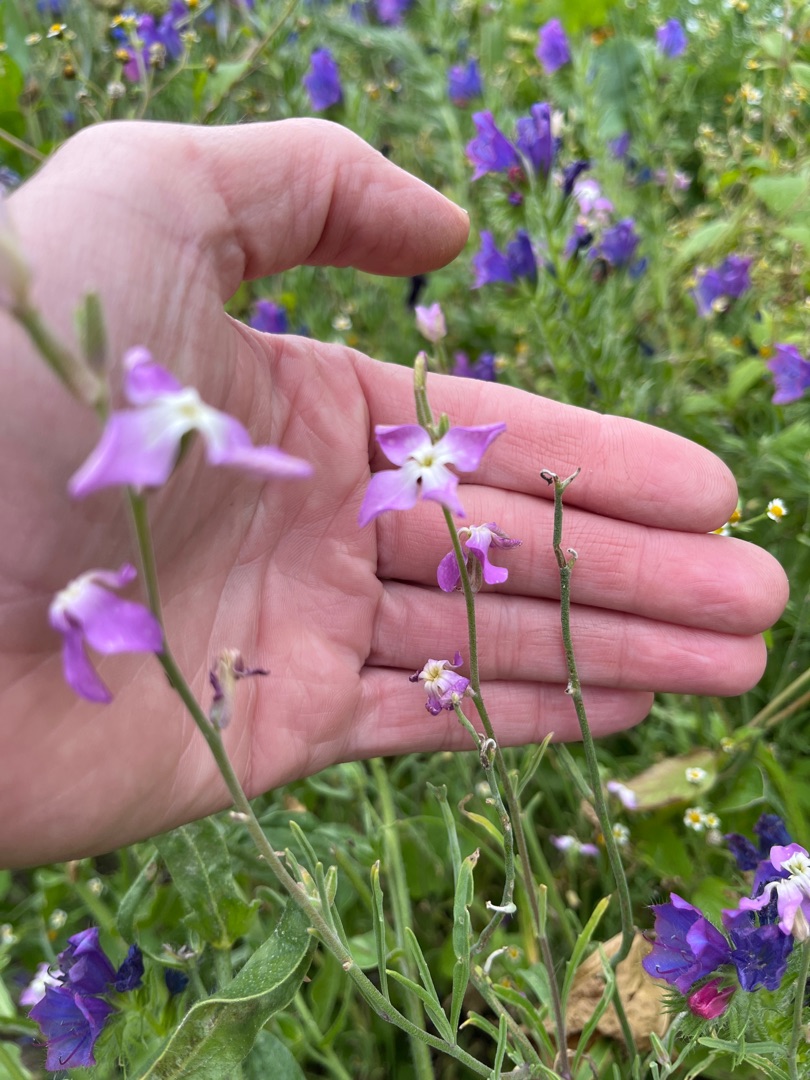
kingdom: Plantae
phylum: Tracheophyta
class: Magnoliopsida
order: Brassicales
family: Brassicaceae
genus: Matthiola
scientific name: Matthiola longipetala
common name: Natlevkøj
